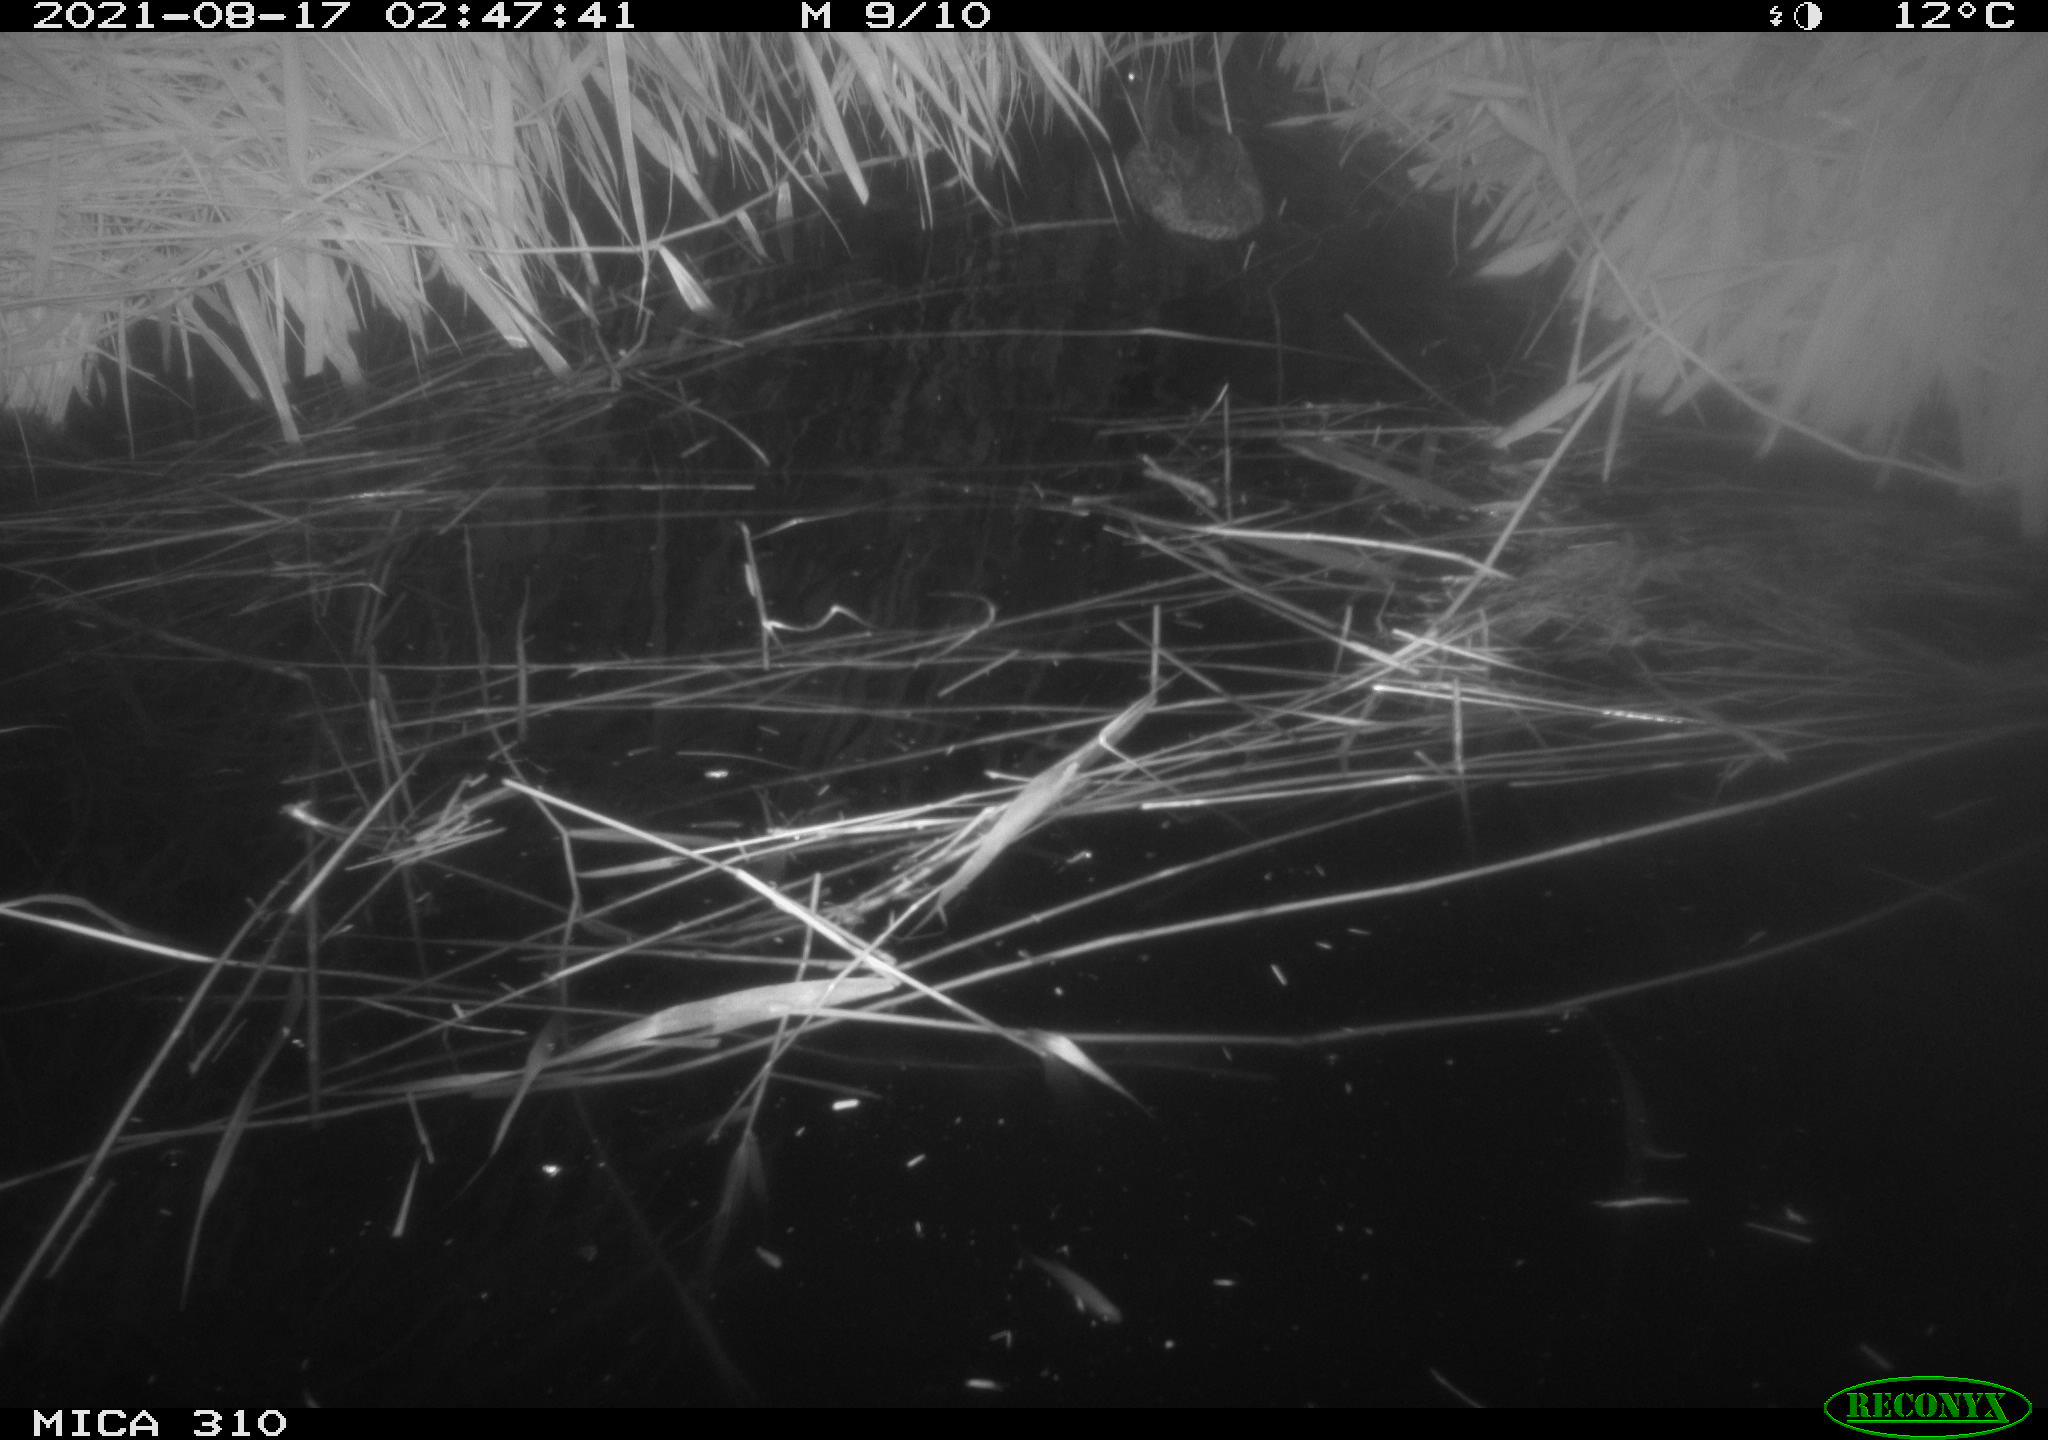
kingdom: Animalia
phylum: Chordata
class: Aves
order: Anseriformes
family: Anatidae
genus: Anas
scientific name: Anas platyrhynchos
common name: Mallard
